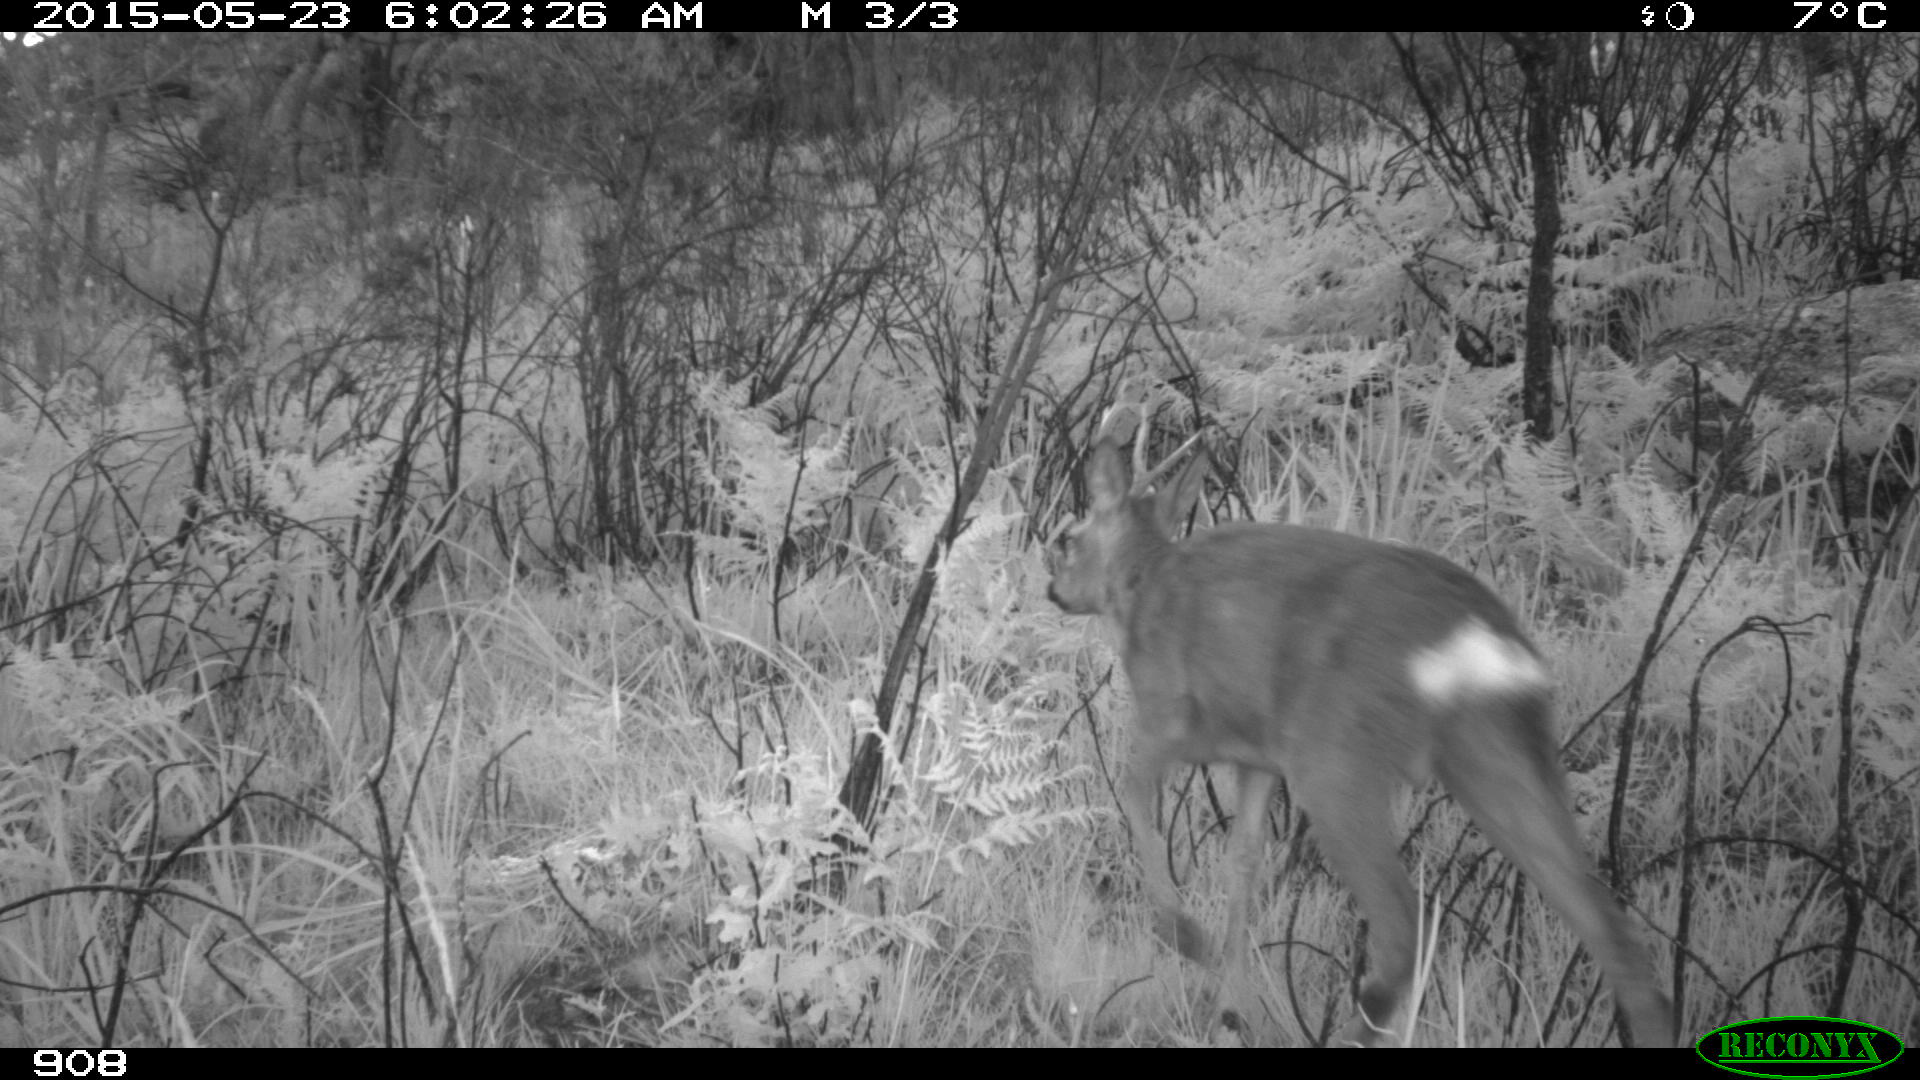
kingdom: Animalia
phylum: Chordata
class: Mammalia
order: Artiodactyla
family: Cervidae
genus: Capreolus
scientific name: Capreolus capreolus
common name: Western roe deer
